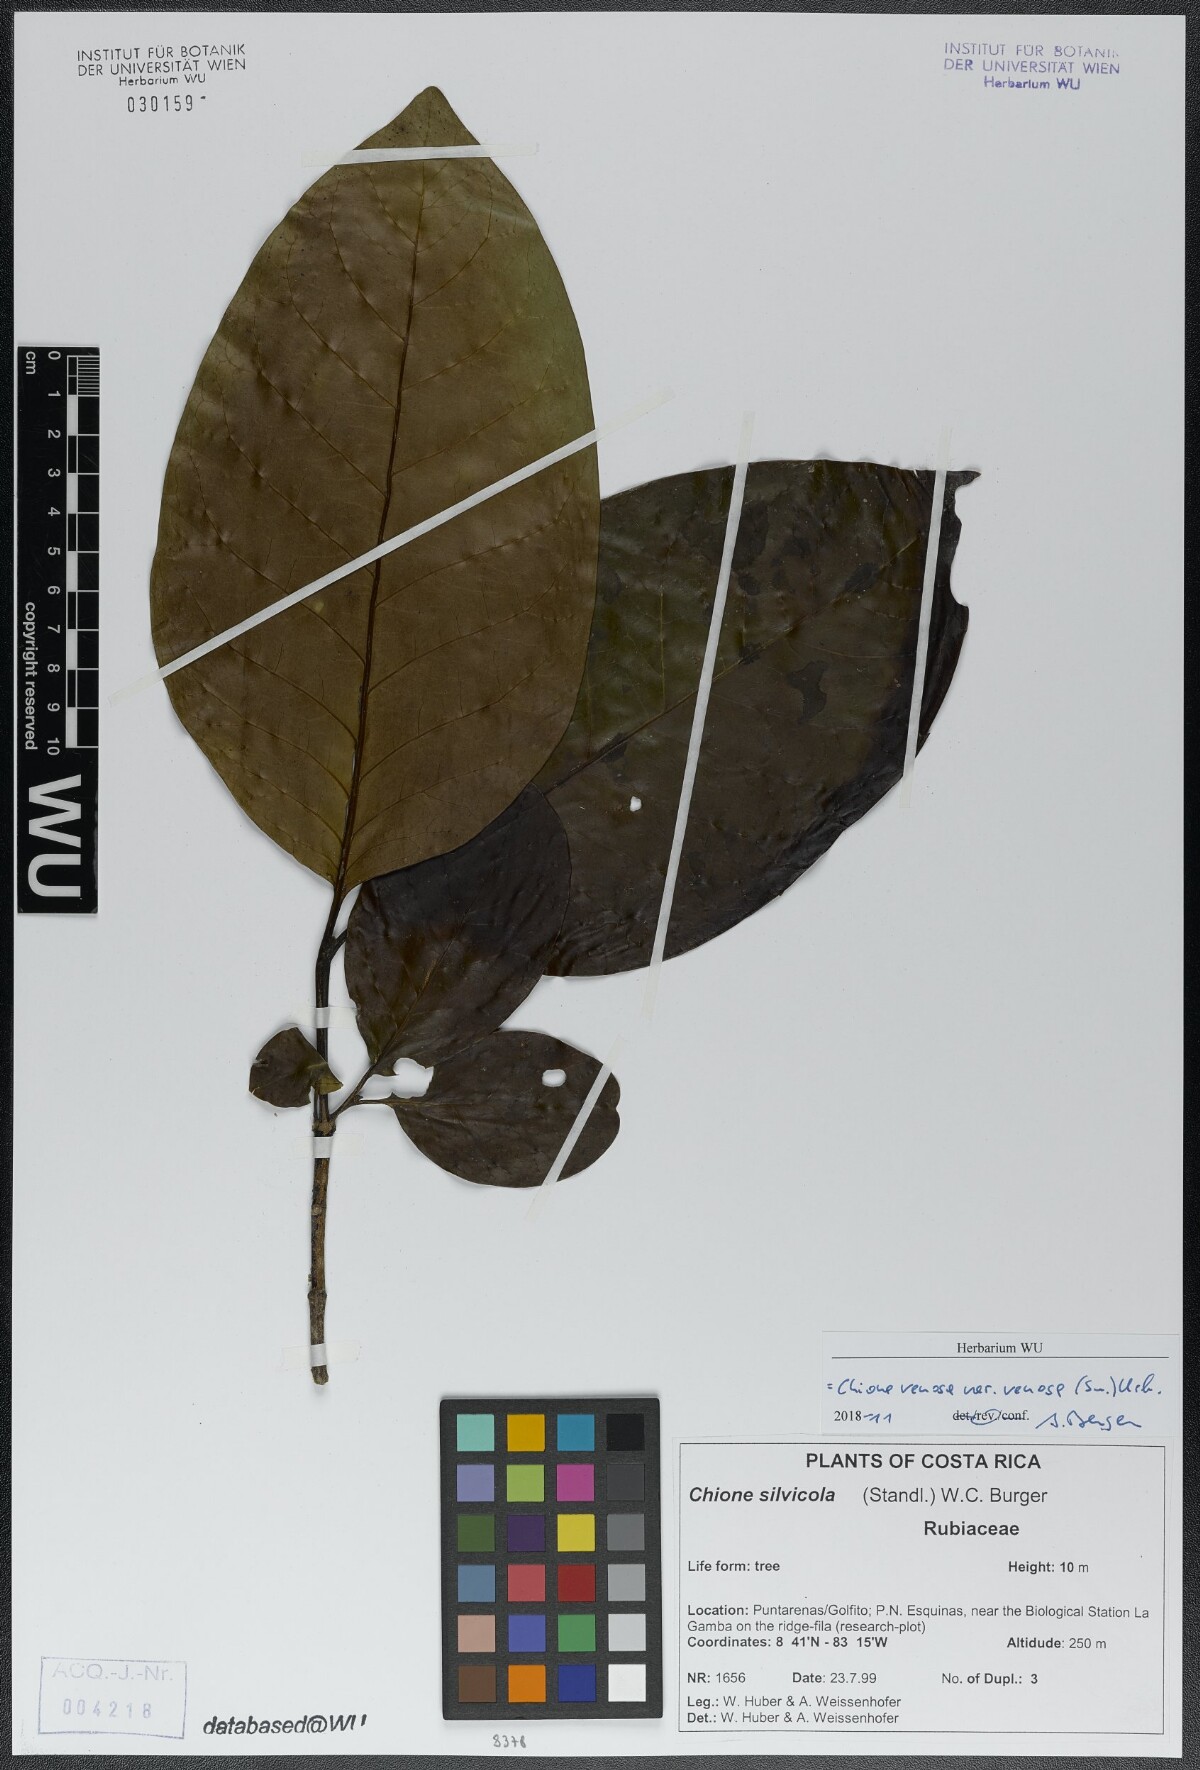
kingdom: Plantae
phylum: Tracheophyta
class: Magnoliopsida
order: Gentianales
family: Rubiaceae
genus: Chione
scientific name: Chione venosa
